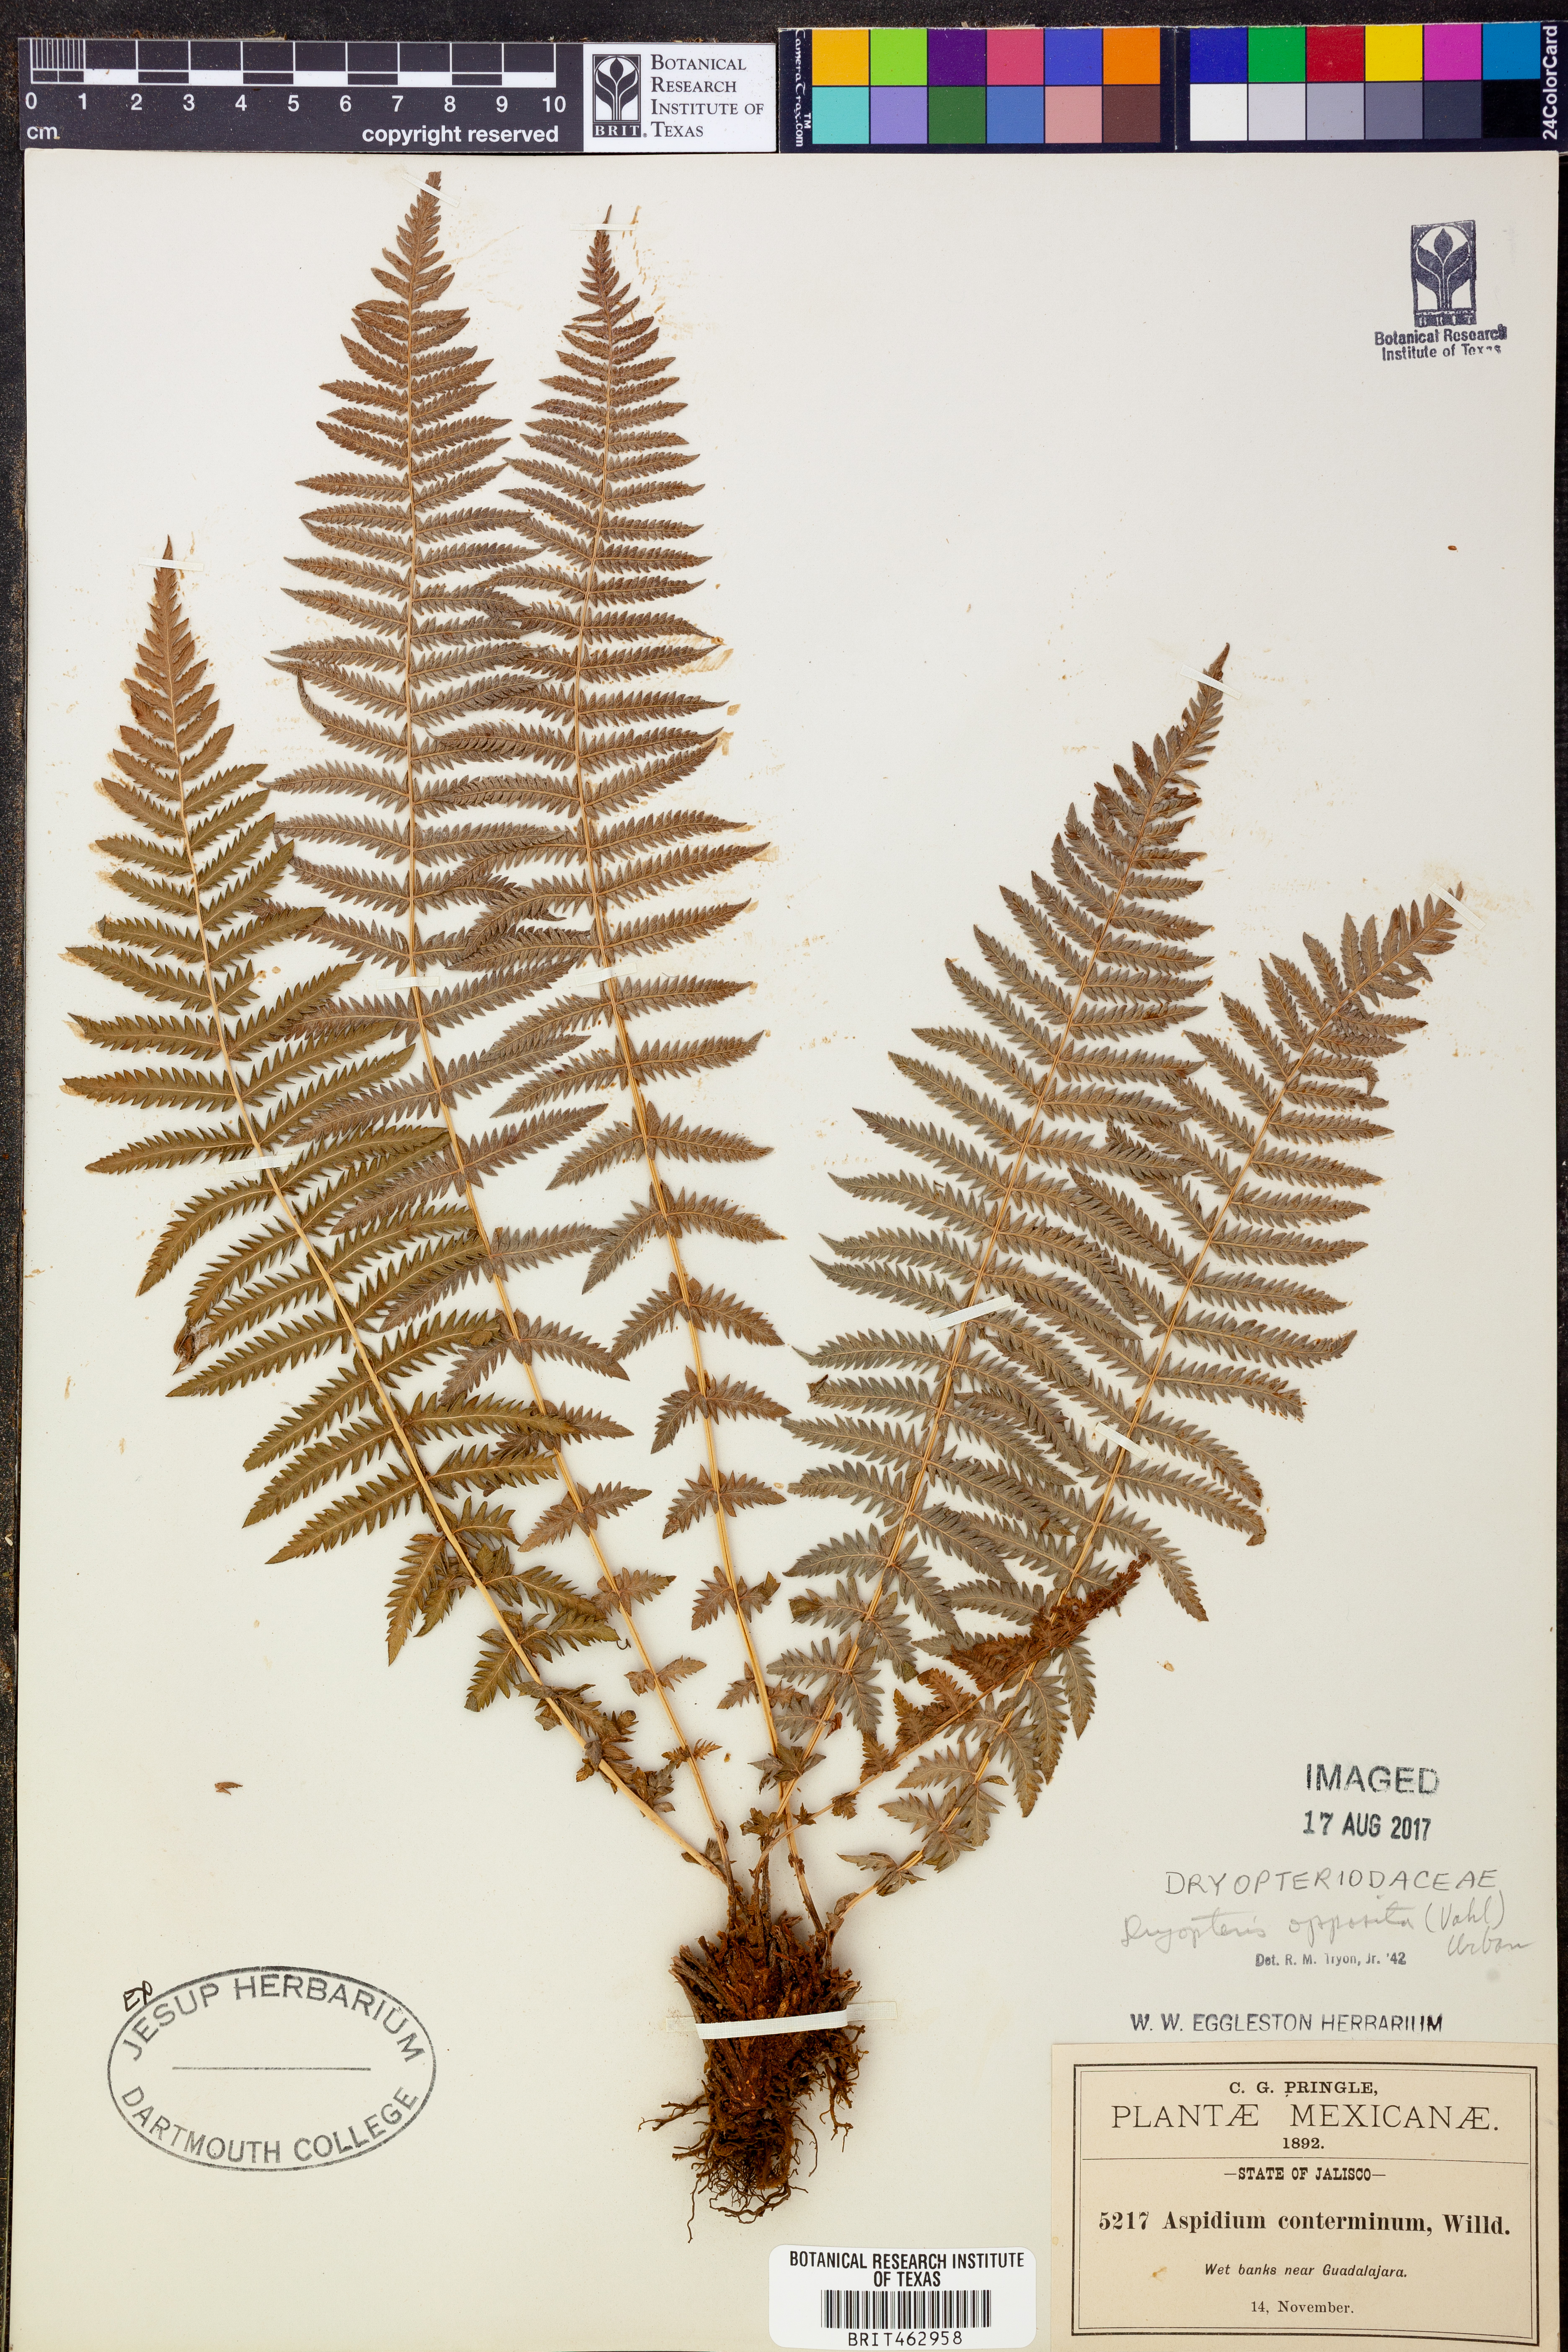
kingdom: Plantae
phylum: Tracheophyta
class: Polypodiopsida
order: Polypodiales
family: Thelypteridaceae
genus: Amauropelta
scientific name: Amauropelta opposita
